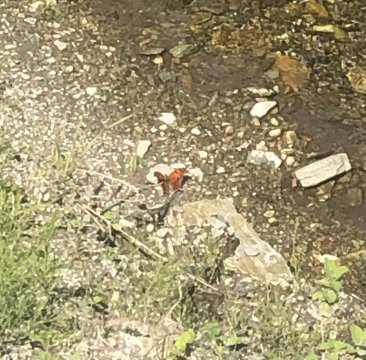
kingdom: Animalia
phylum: Arthropoda
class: Insecta
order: Lepidoptera
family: Nymphalidae
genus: Polygonia
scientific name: Polygonia interrogationis
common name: Question Mark
